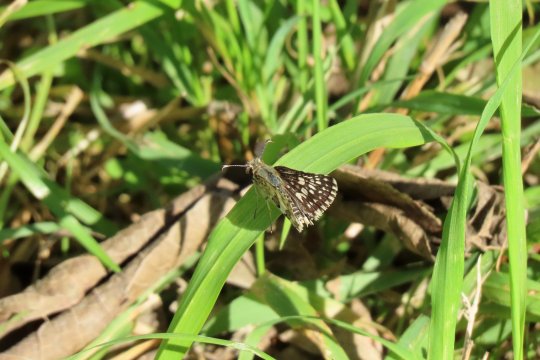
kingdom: Animalia
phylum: Arthropoda
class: Insecta
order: Lepidoptera
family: Hesperiidae
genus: Pyrgus
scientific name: Pyrgus communis
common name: Common Checkered-Skipper
